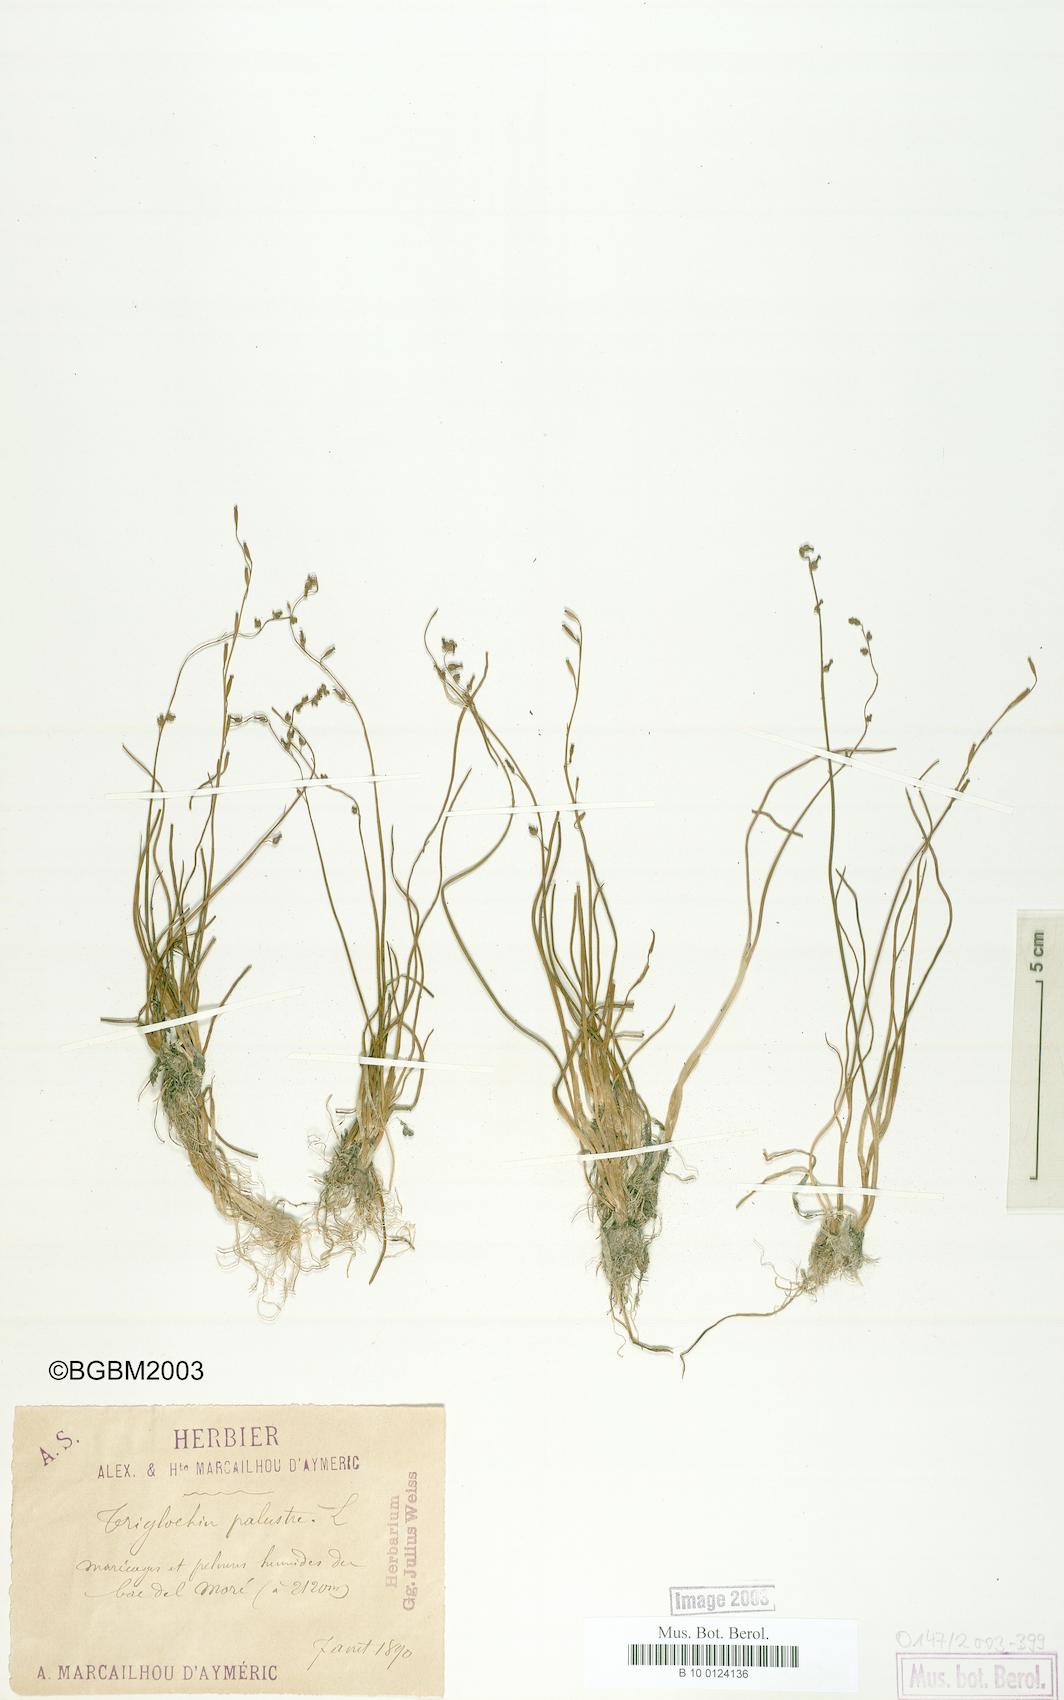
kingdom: Plantae
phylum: Tracheophyta
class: Liliopsida
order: Alismatales
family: Juncaginaceae
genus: Triglochin
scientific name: Triglochin palustris
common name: Marsh arrowgrass
